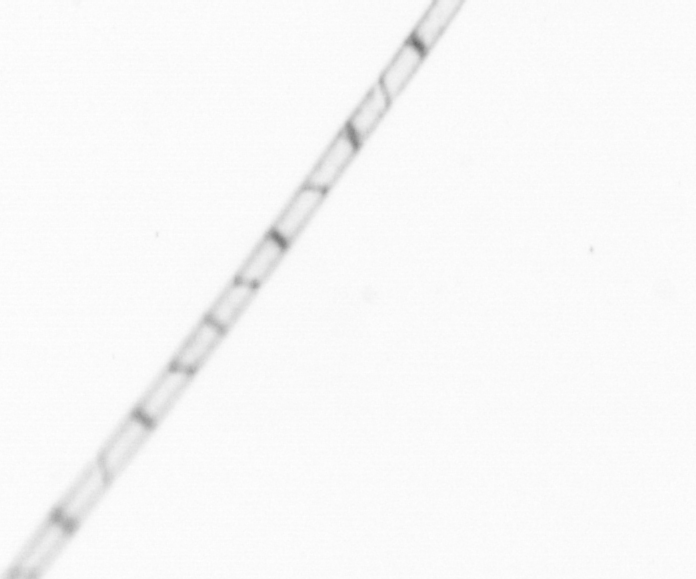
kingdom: Chromista
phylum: Ochrophyta
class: Bacillariophyceae
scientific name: Bacillariophyceae
